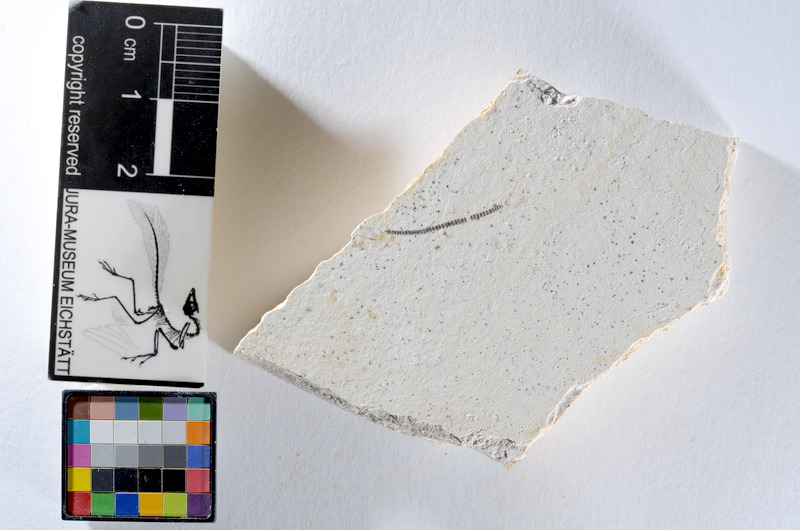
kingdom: Animalia
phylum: Chordata
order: Salmoniformes
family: Orthogonikleithridae
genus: Orthogonikleithrus
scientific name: Orthogonikleithrus hoelli
